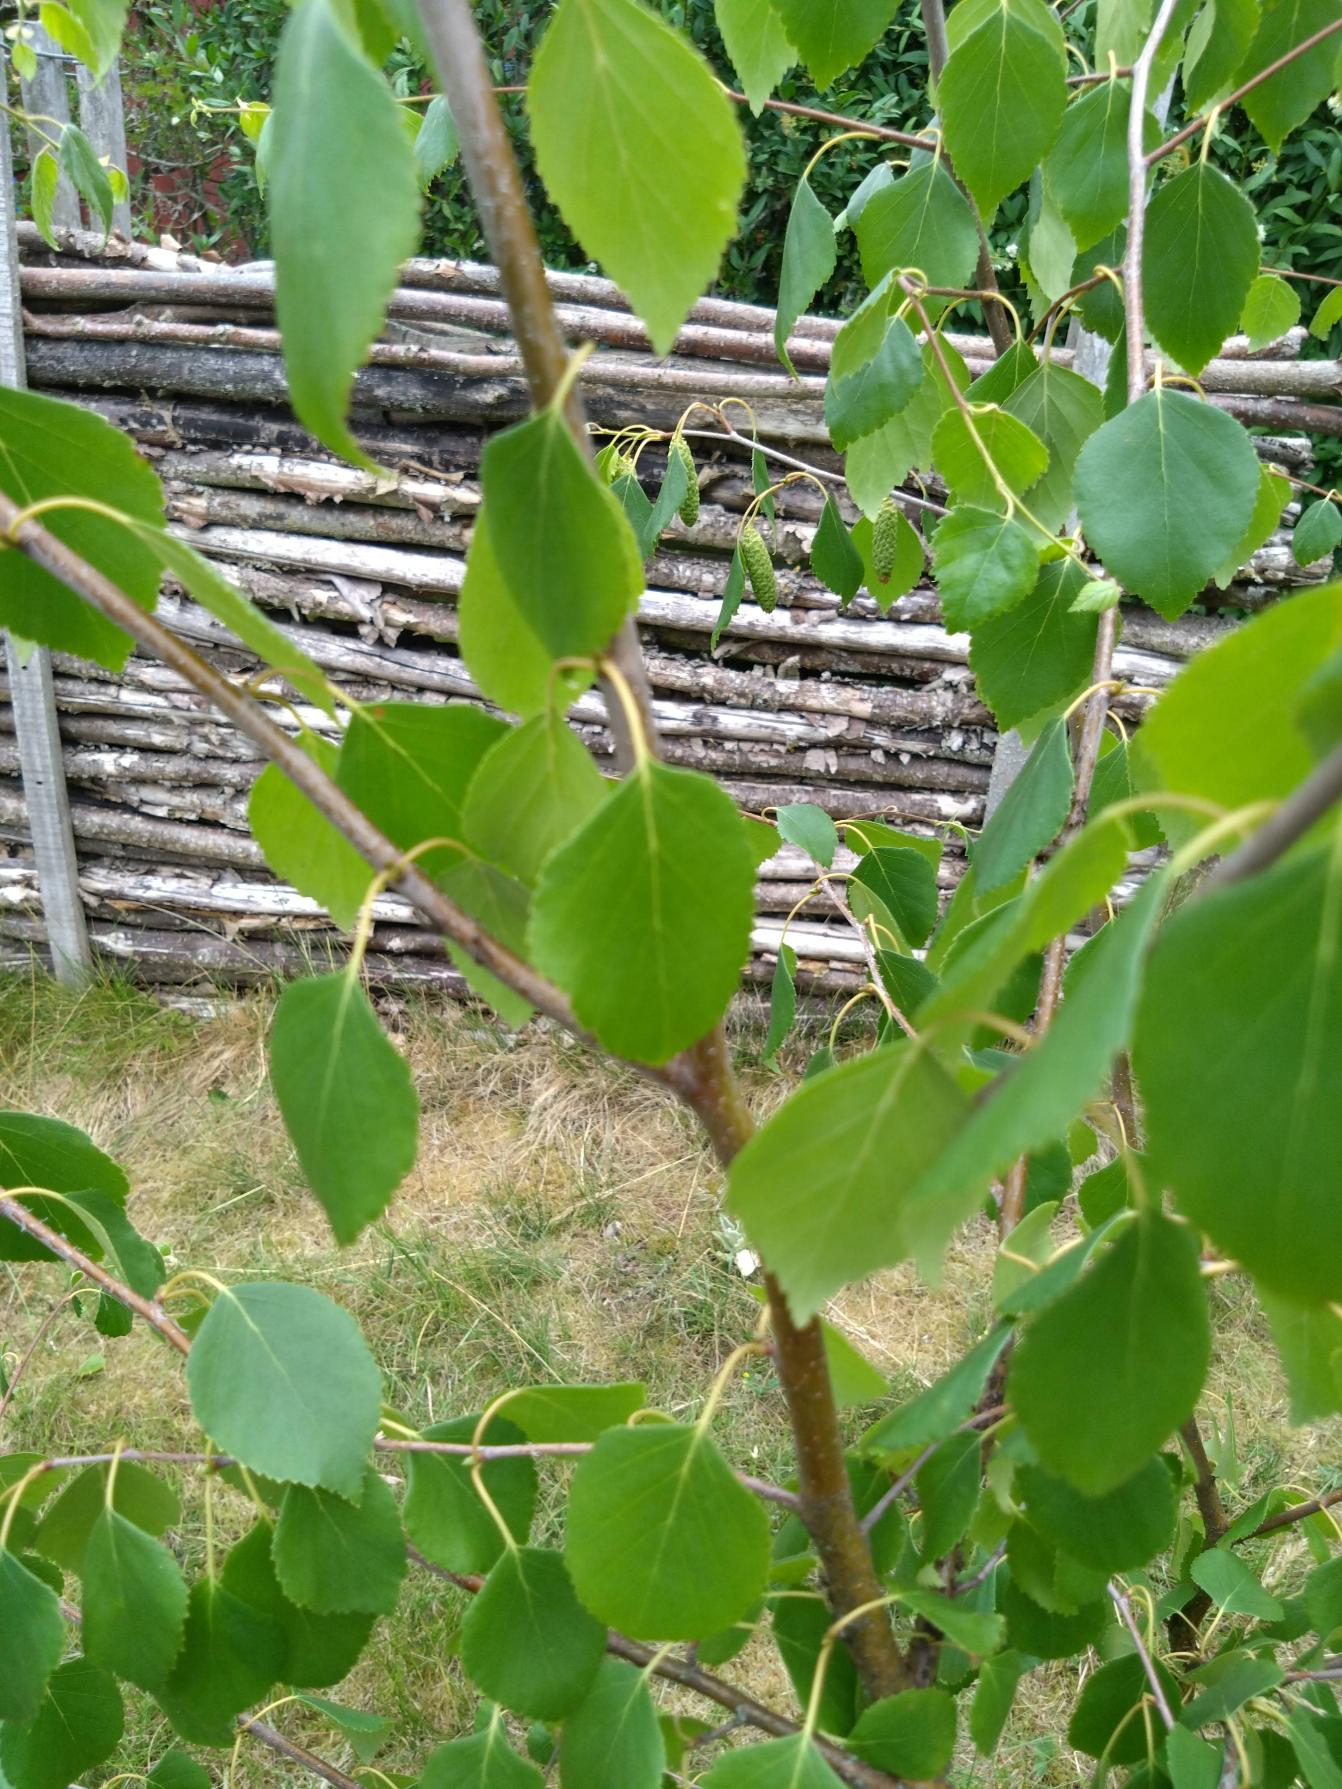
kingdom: Plantae
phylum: Tracheophyta
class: Magnoliopsida
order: Fagales
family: Betulaceae
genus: Betula
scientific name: Betula
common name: Birkeslægten
